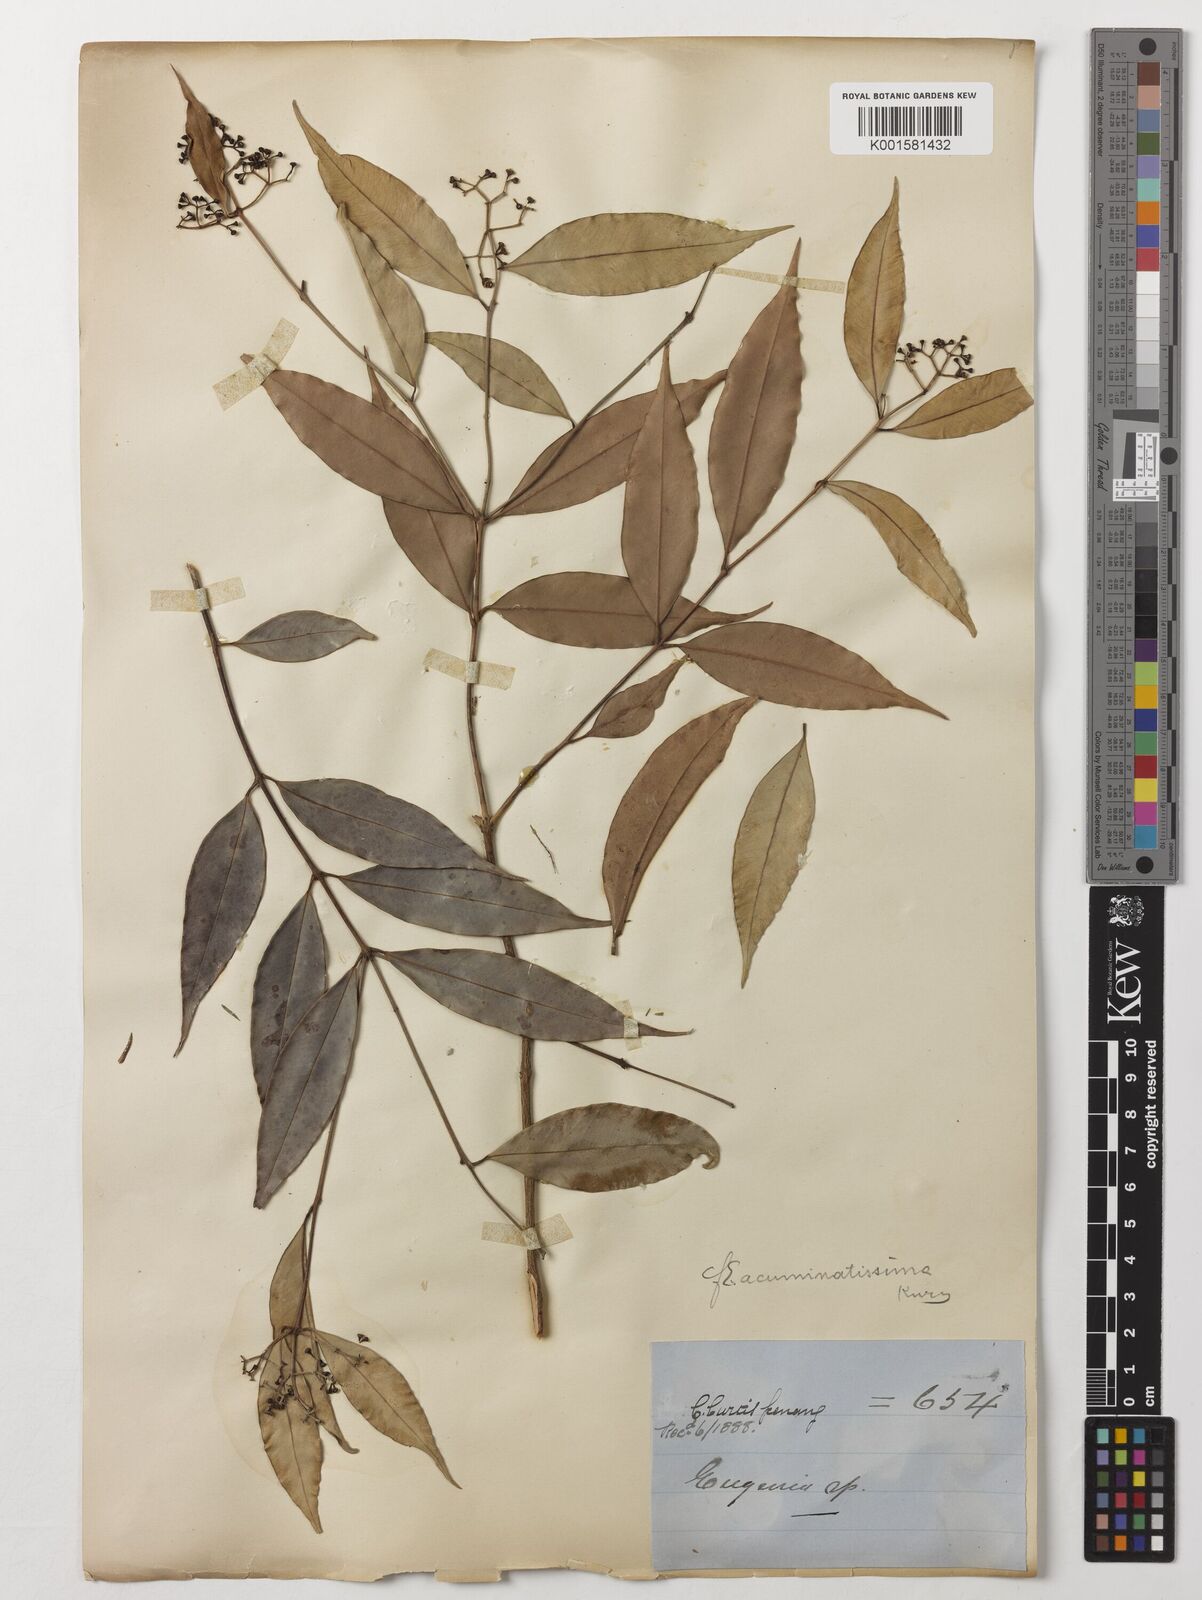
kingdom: Plantae
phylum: Tracheophyta
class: Magnoliopsida
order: Myrtales
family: Myrtaceae
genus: Eugenia
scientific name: Eugenia biflora
